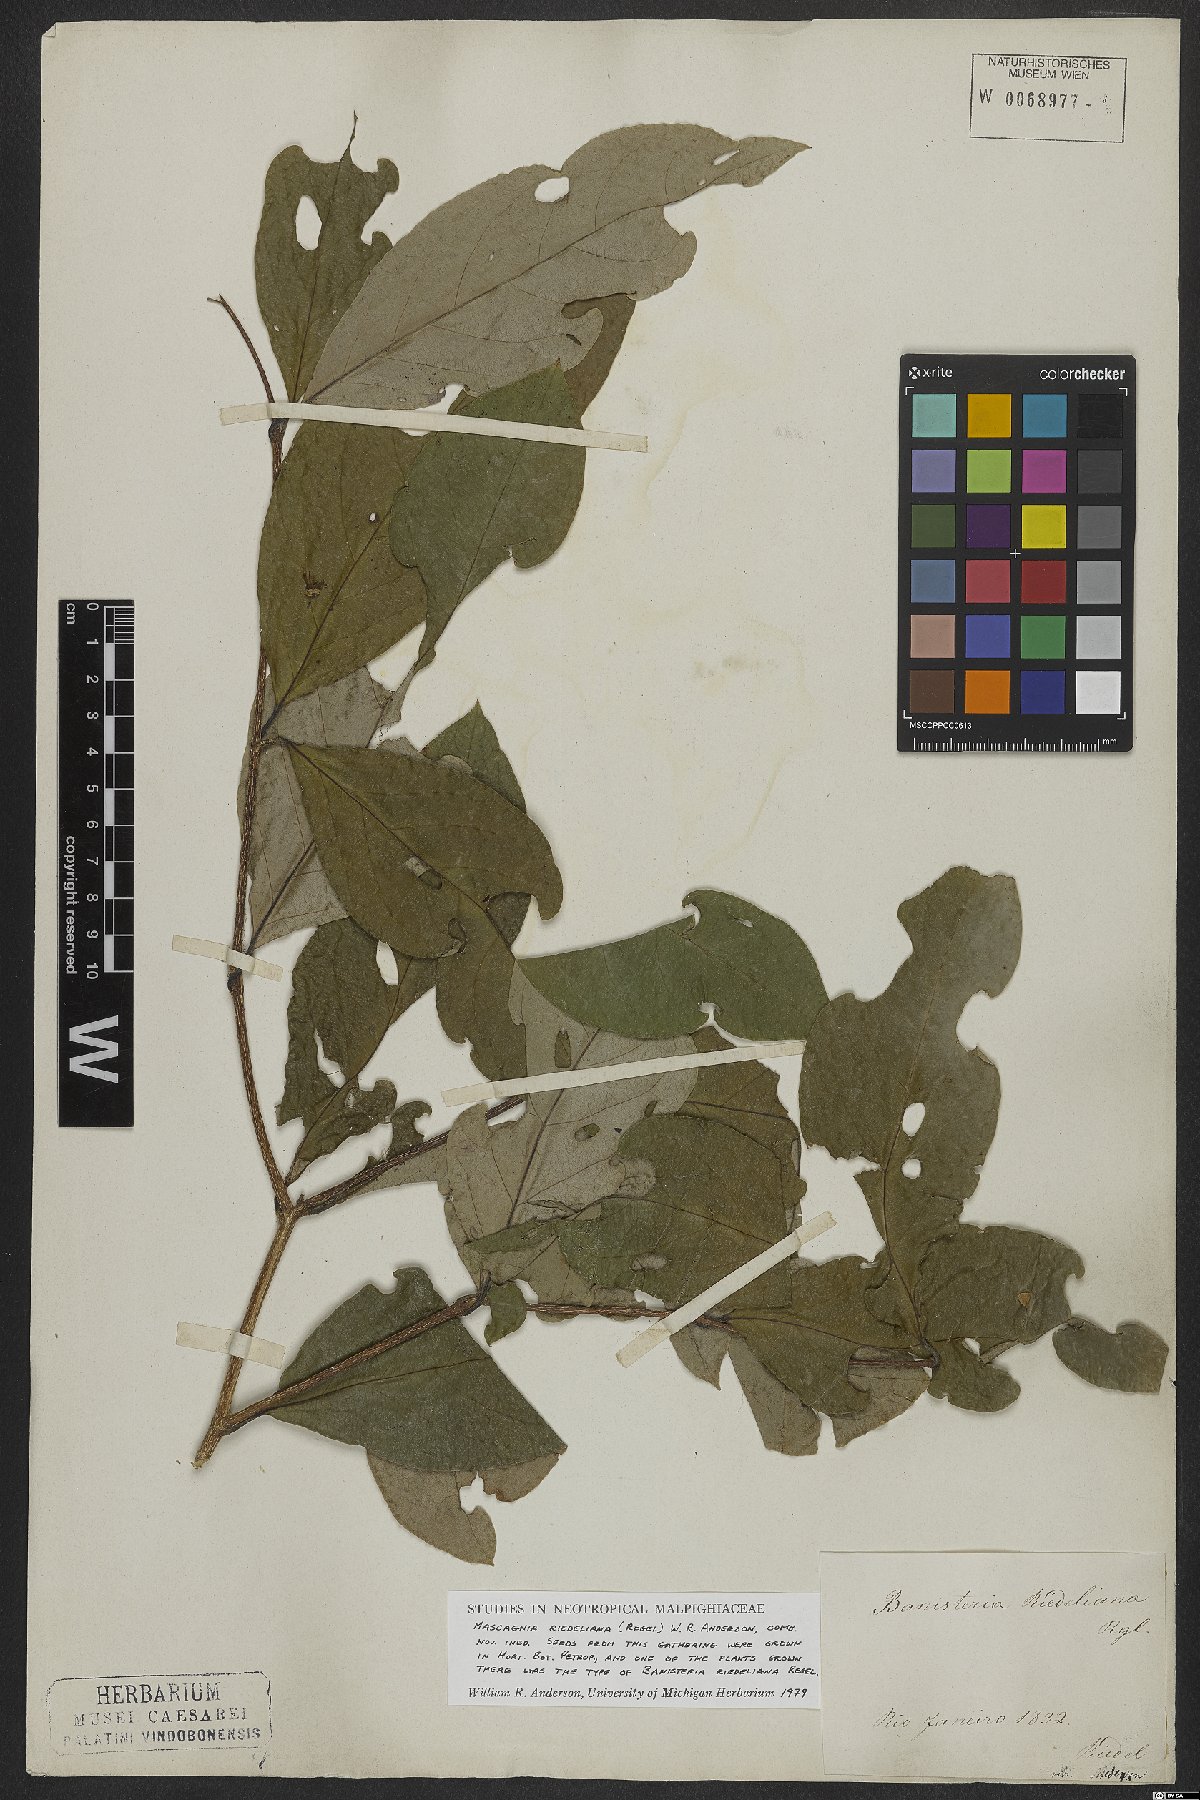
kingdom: Plantae
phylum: Tracheophyta
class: Magnoliopsida
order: Malpighiales
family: Malpighiaceae
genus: Mascagnia
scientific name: Mascagnia riedeliana
